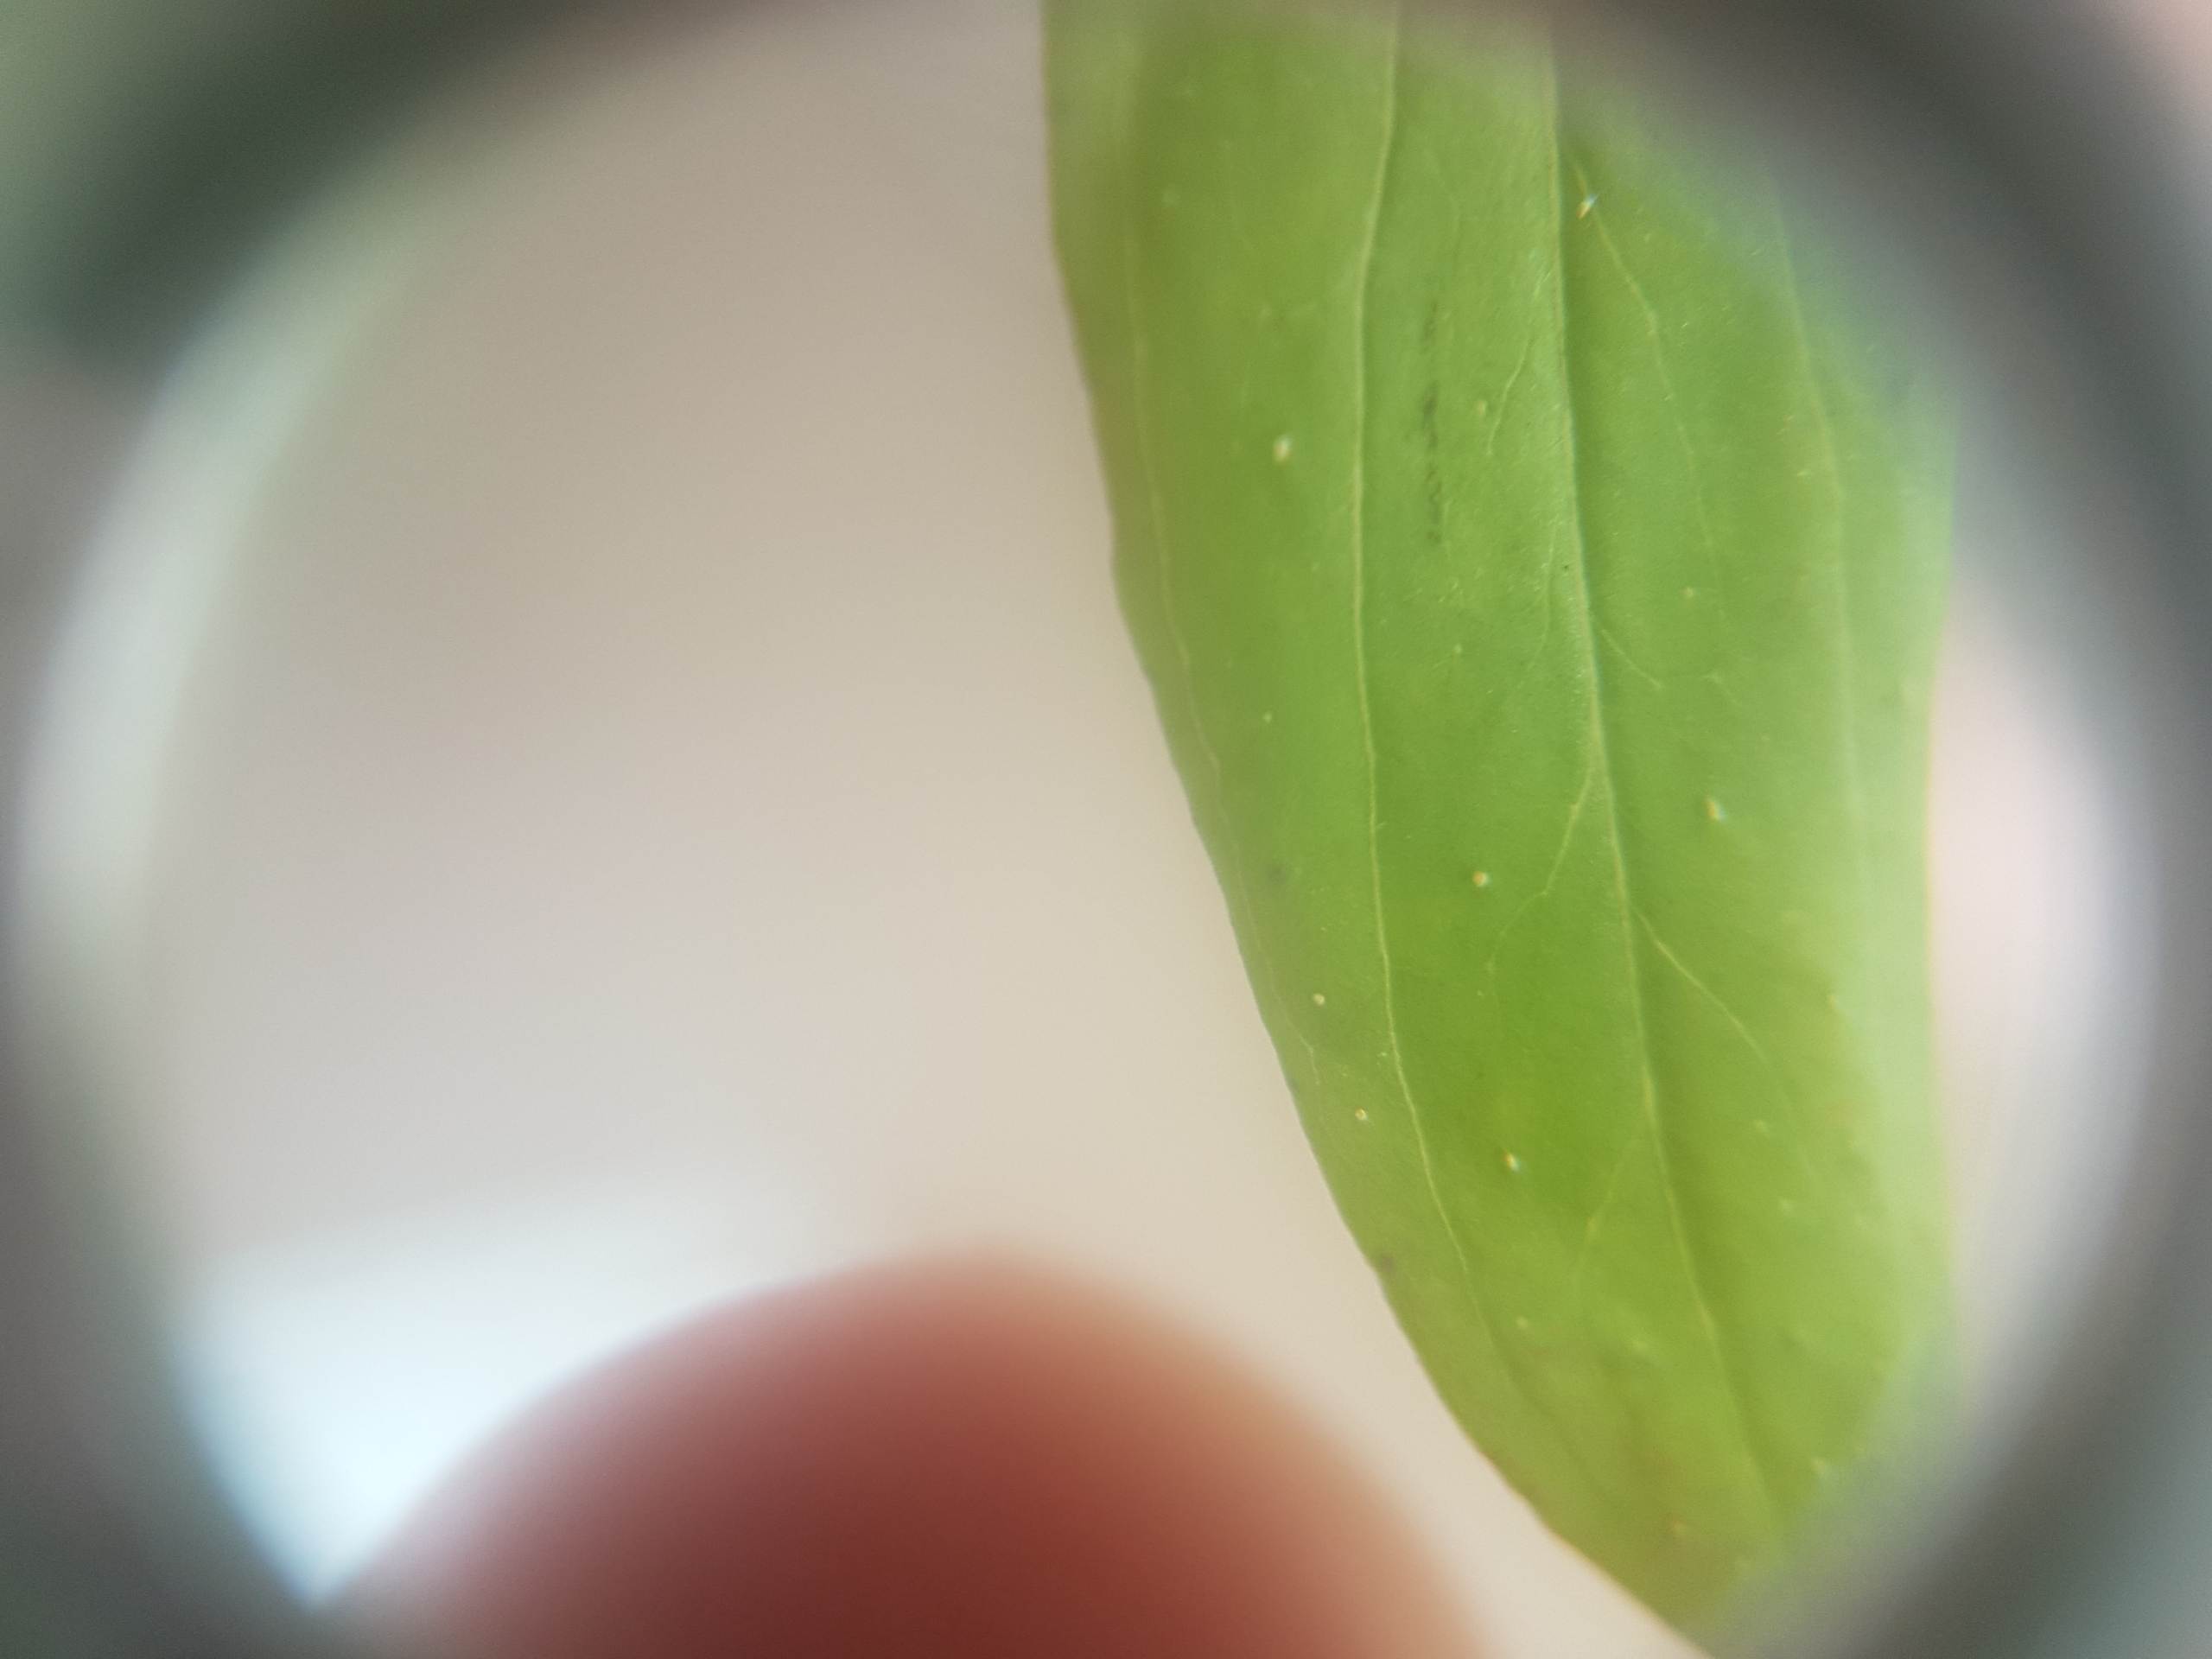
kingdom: Plantae
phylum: Tracheophyta
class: Magnoliopsida
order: Malpighiales
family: Hypericaceae
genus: Hypericum
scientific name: Hypericum perforatum
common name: Prikbladet perikon
